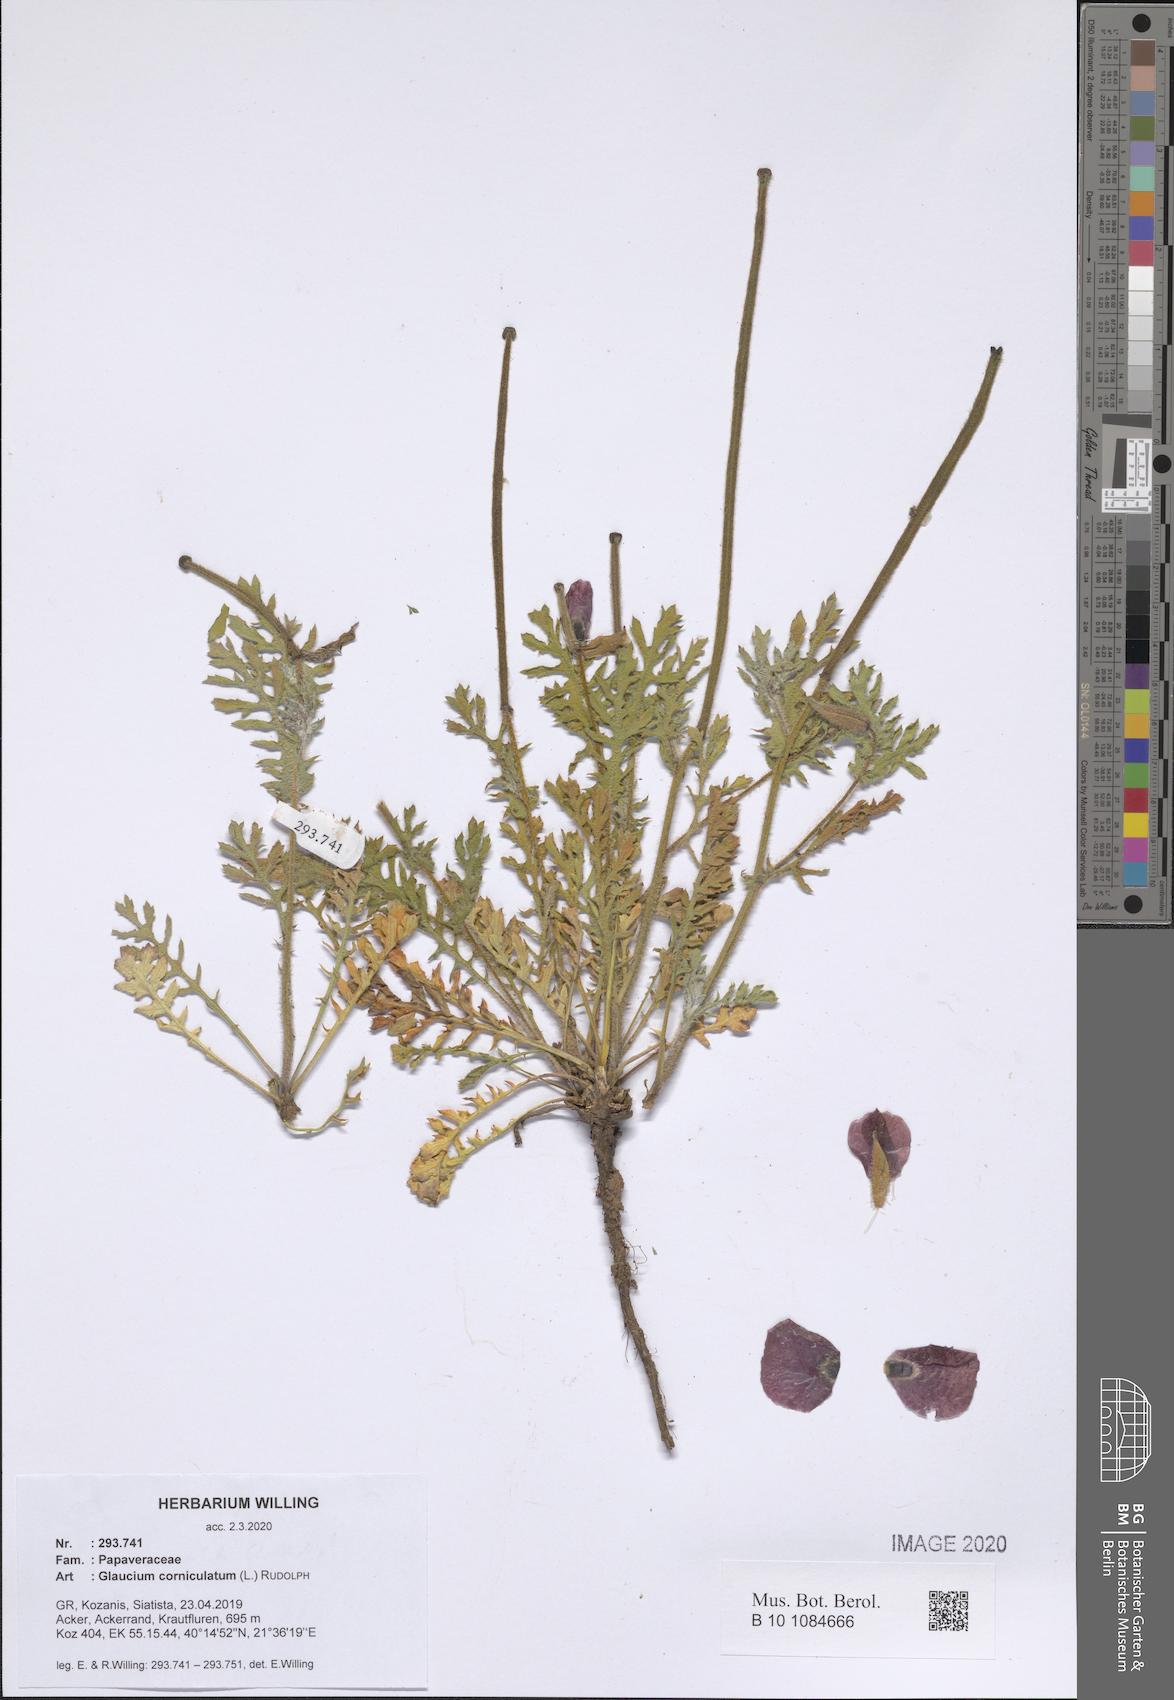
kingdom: Plantae
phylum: Tracheophyta
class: Magnoliopsida
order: Ranunculales
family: Papaveraceae
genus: Glaucium
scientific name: Glaucium corniculatum
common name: Red horned-poppy
